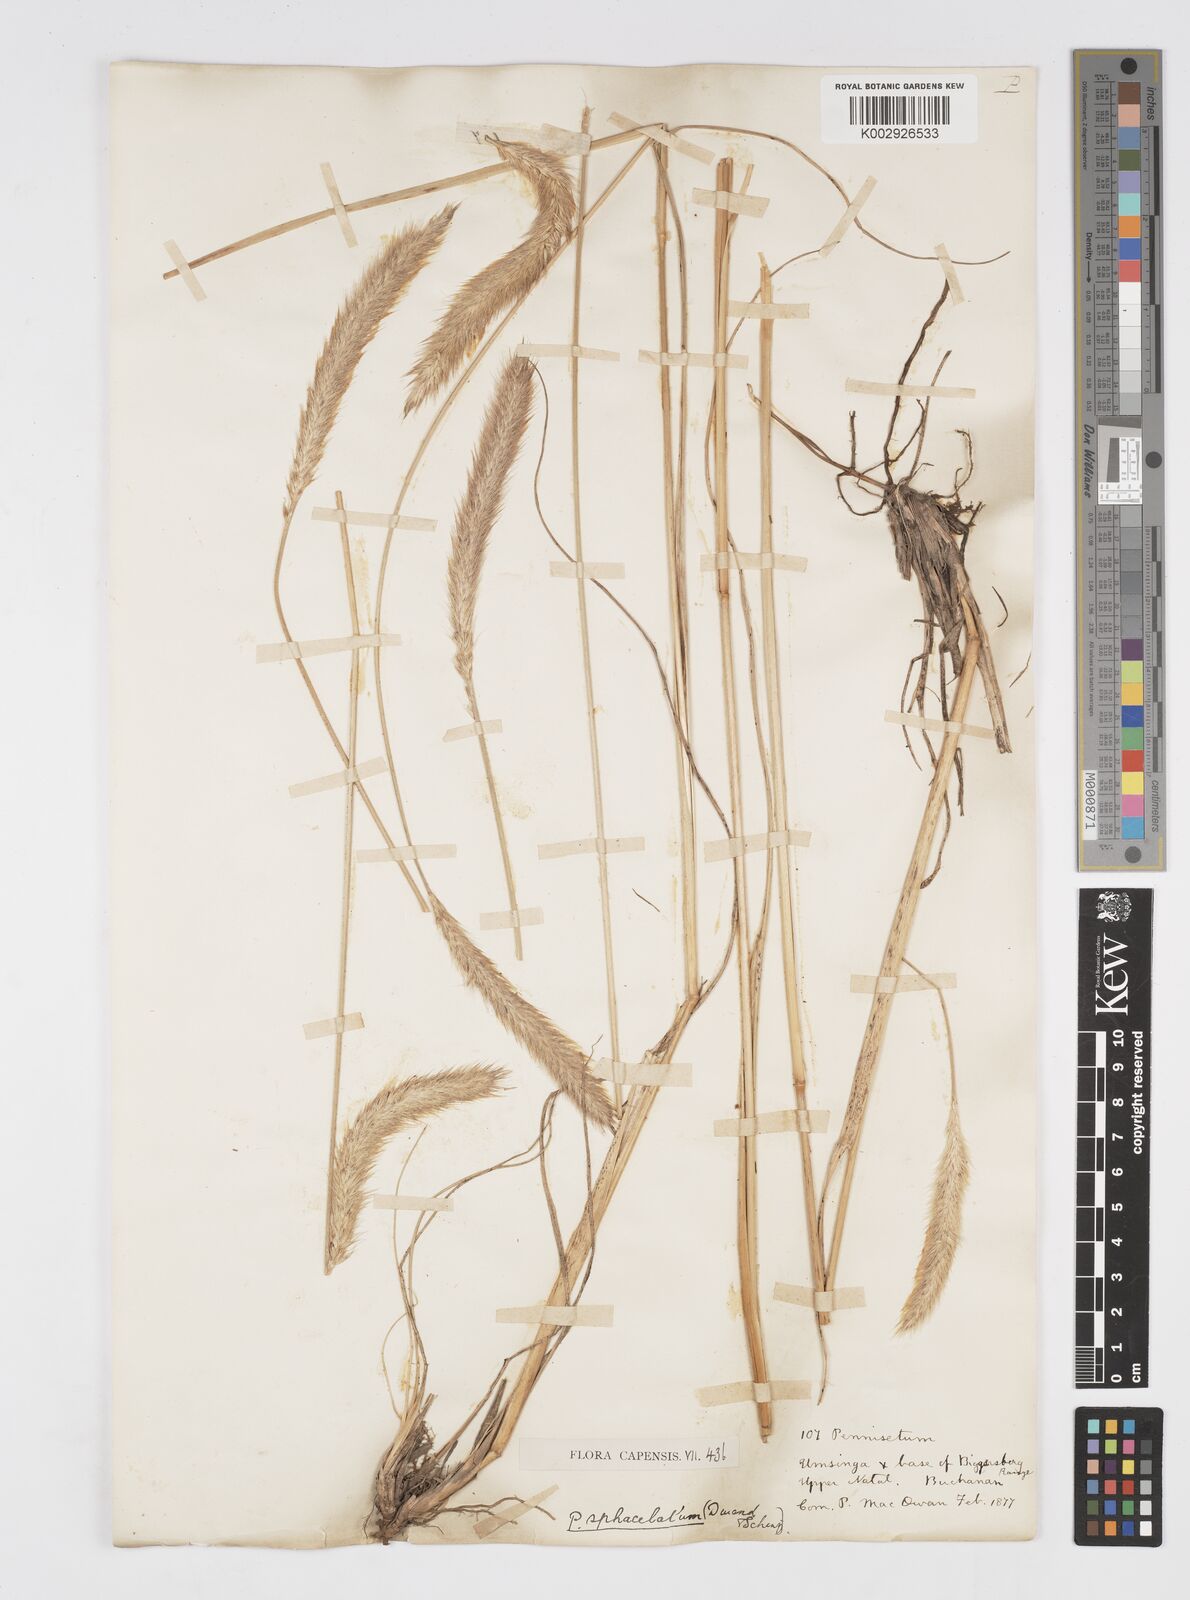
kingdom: Plantae
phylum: Tracheophyta
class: Liliopsida
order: Poales
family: Poaceae
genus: Cenchrus
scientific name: Cenchrus sphacelatus
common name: Bulgras
